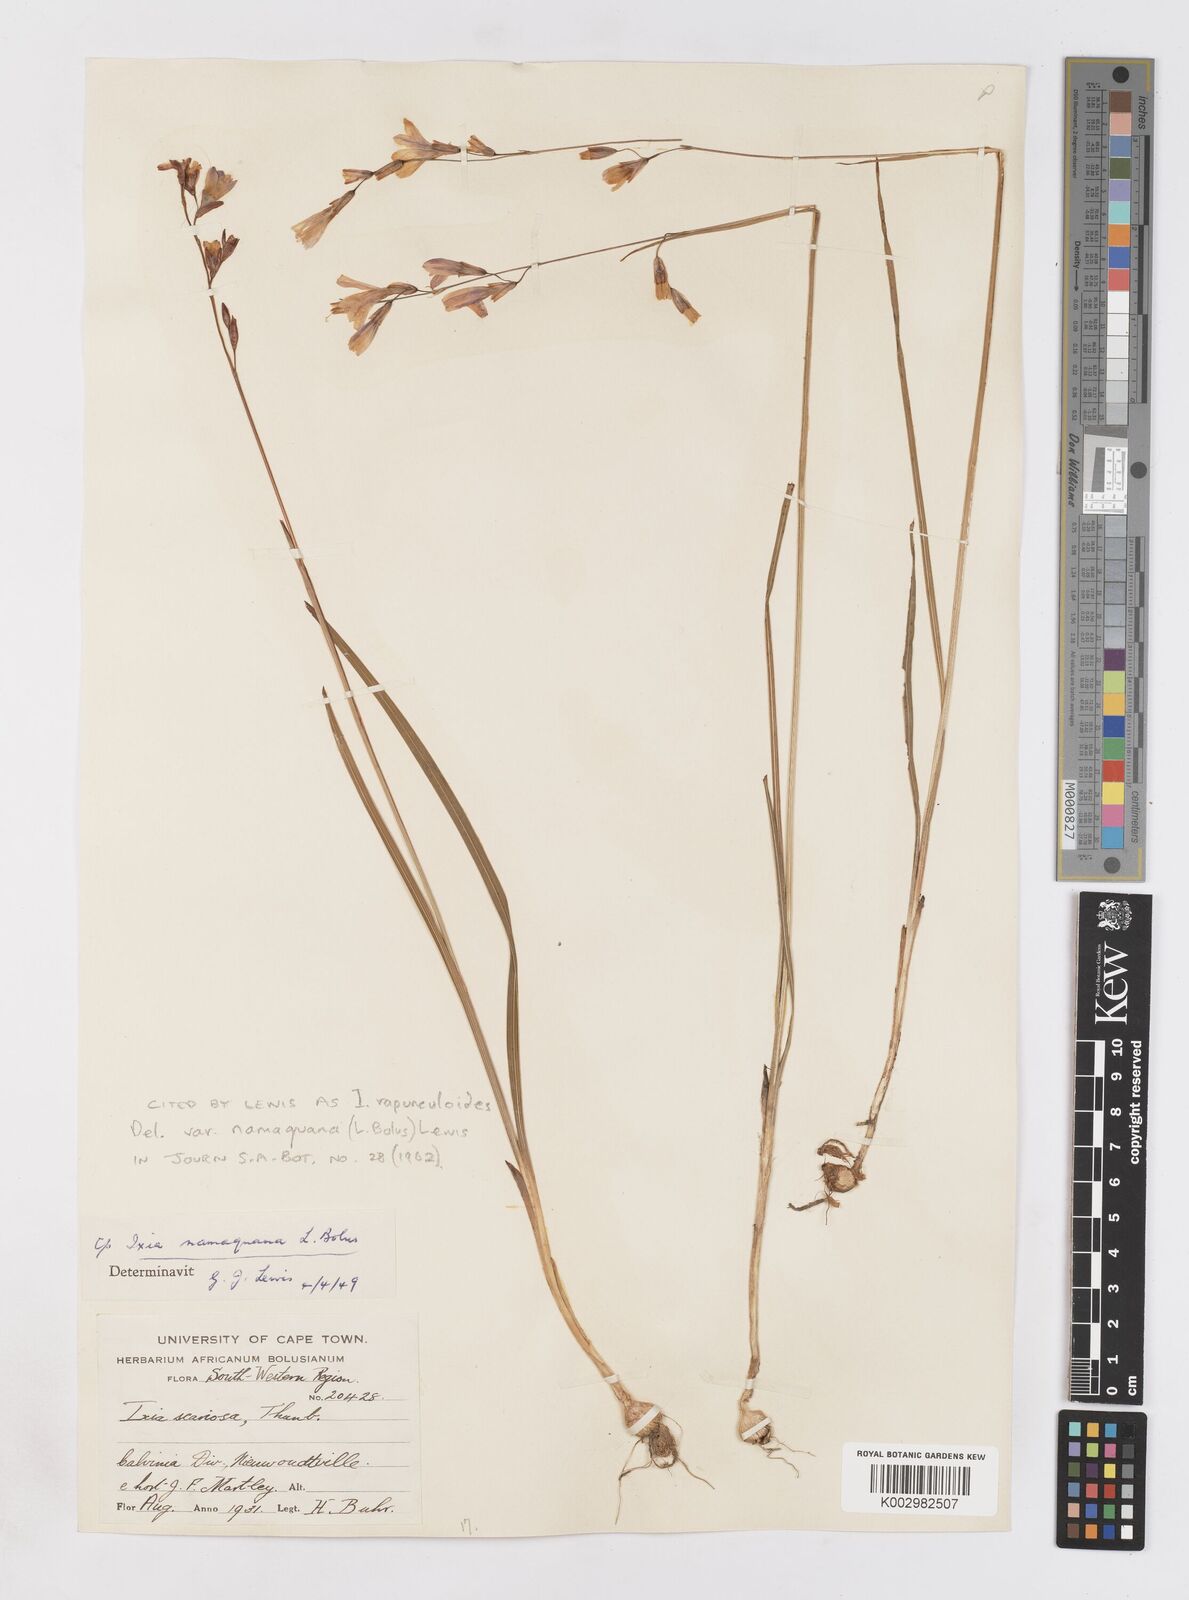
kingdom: Plantae
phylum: Tracheophyta
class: Liliopsida
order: Asparagales
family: Iridaceae
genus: Ixia
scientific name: Ixia rapunculoides
